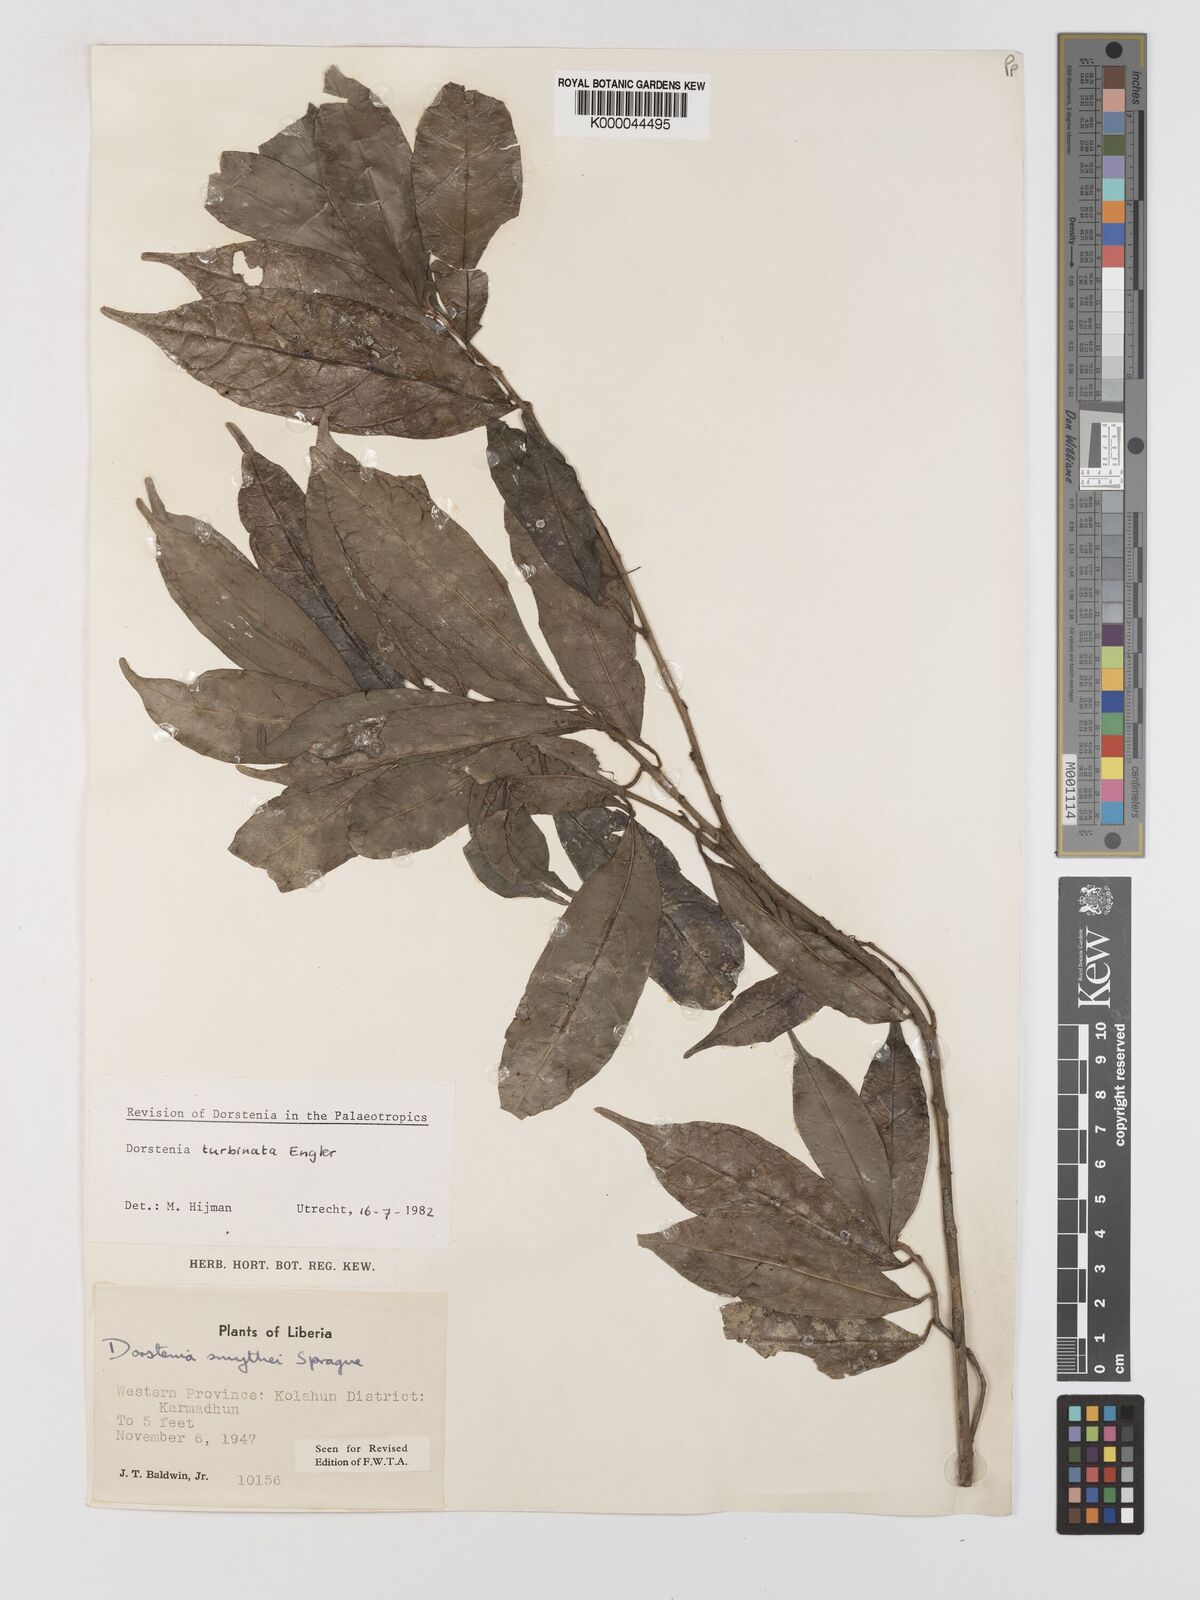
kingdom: Plantae
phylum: Tracheophyta
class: Magnoliopsida
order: Rosales
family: Moraceae
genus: Hijmania
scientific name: Hijmania turbinata
